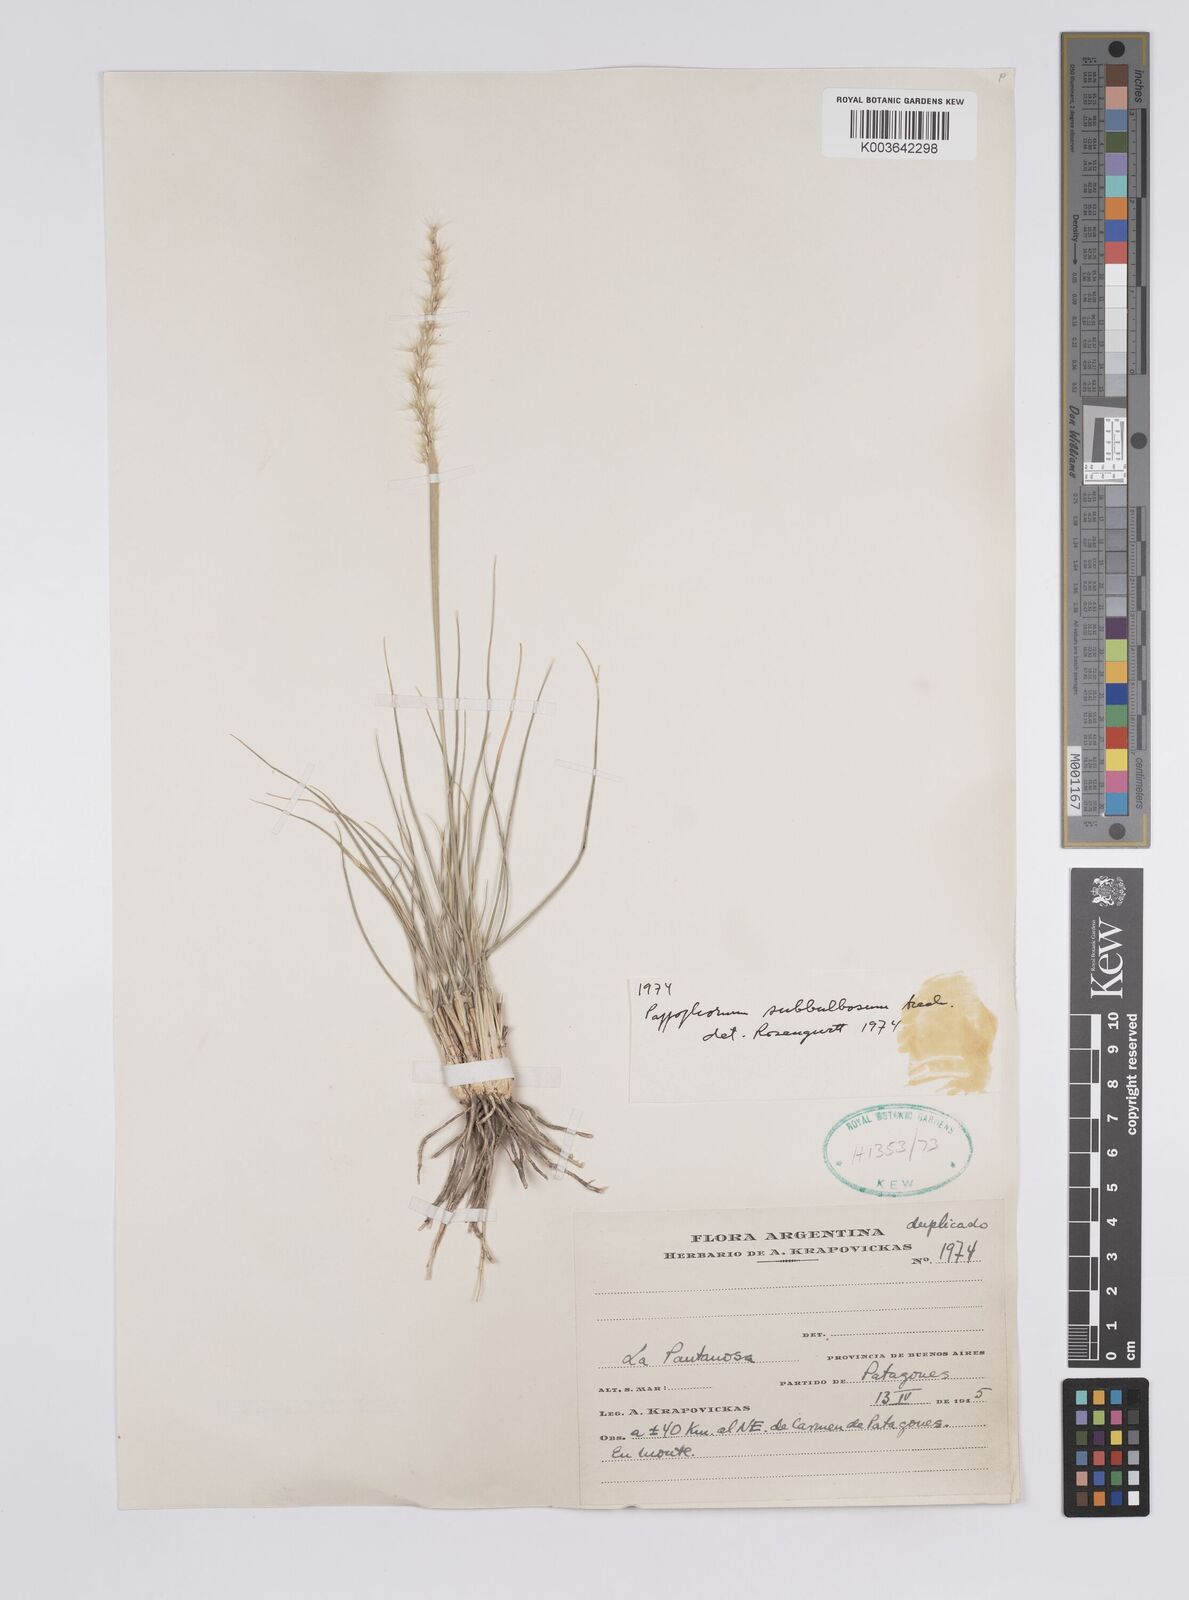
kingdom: Plantae
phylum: Tracheophyta
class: Liliopsida
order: Poales
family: Poaceae
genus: Pappophorum
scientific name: Pappophorum mucronulatum
